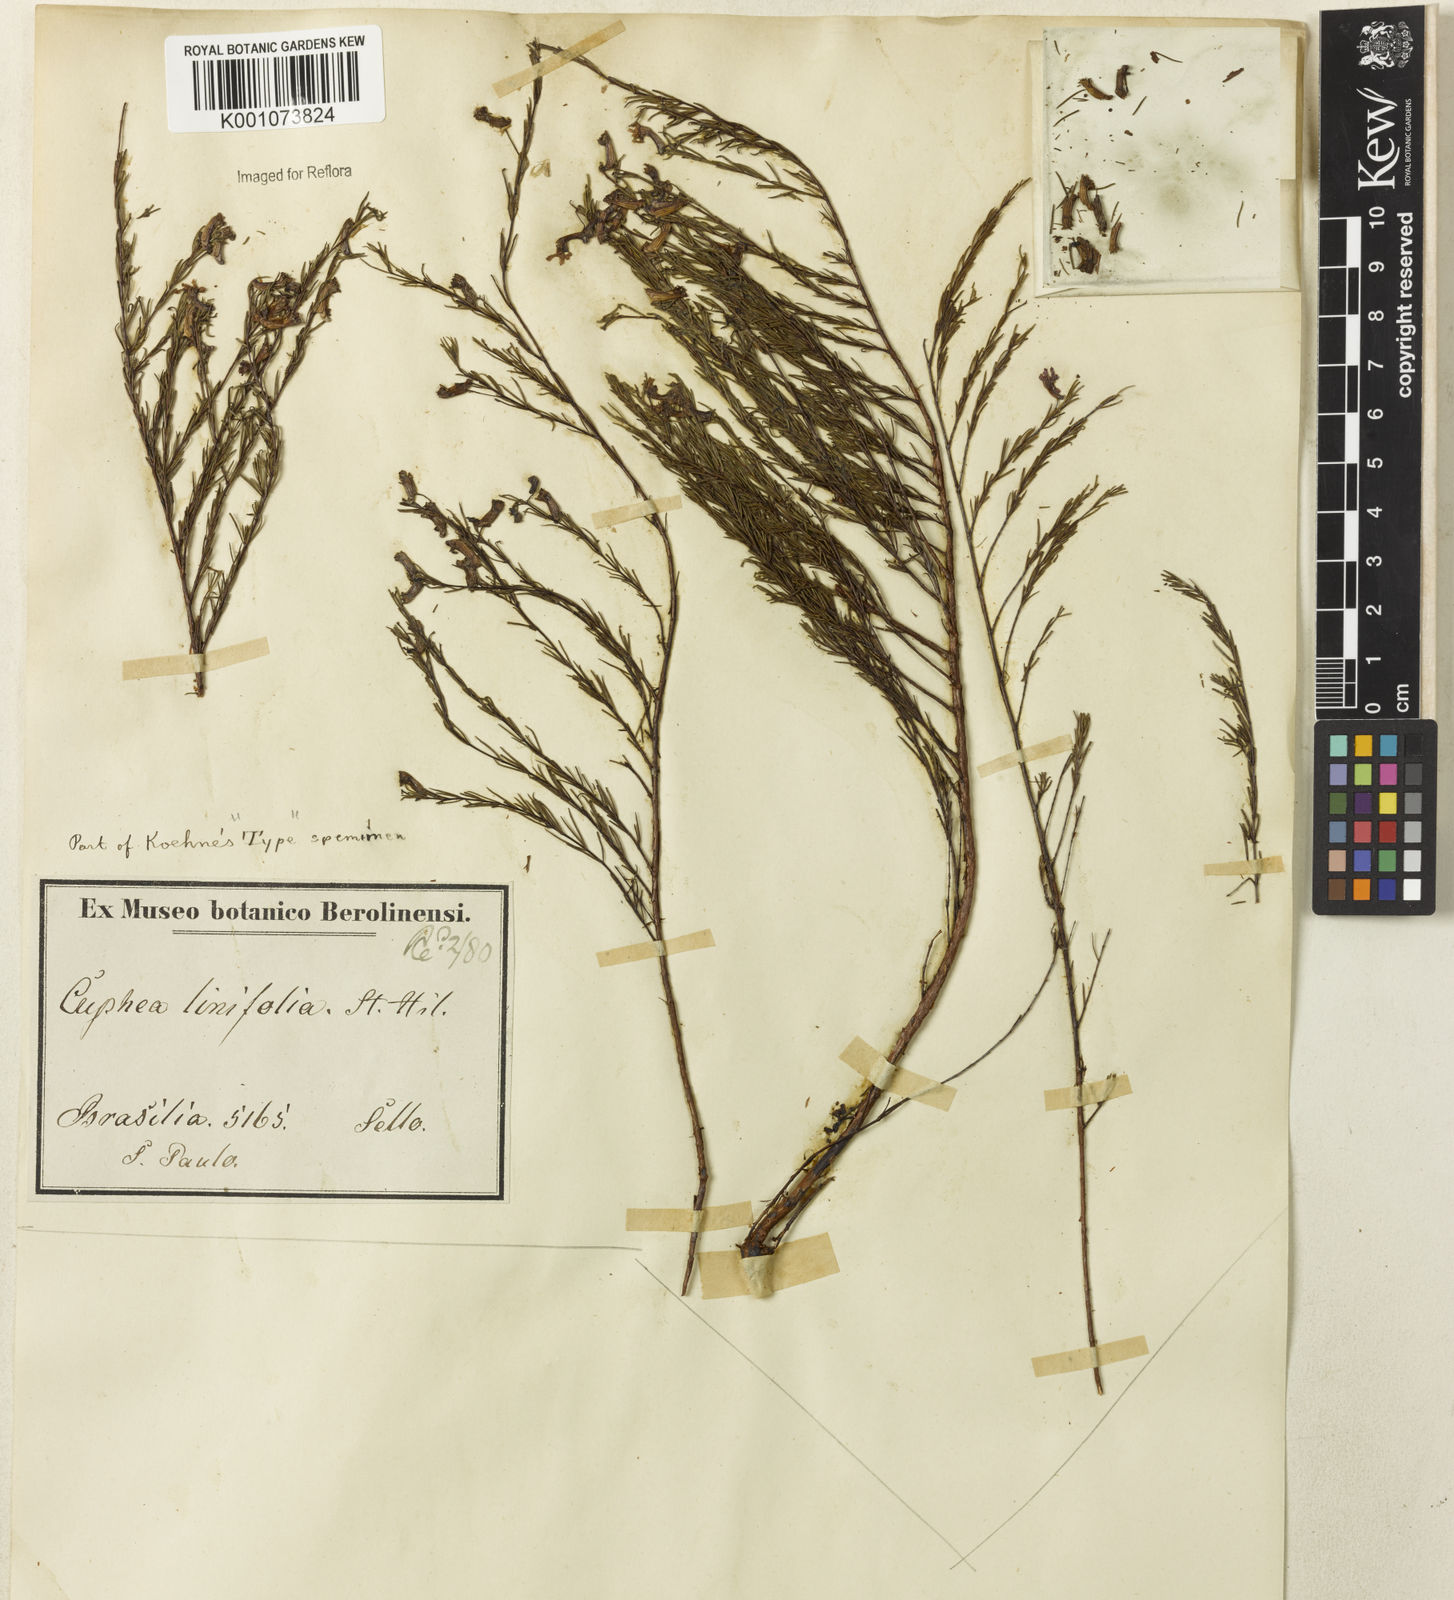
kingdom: Plantae
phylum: Tracheophyta
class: Magnoliopsida
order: Myrtales
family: Lythraceae
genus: Cuphea
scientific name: Cuphea linifolia
